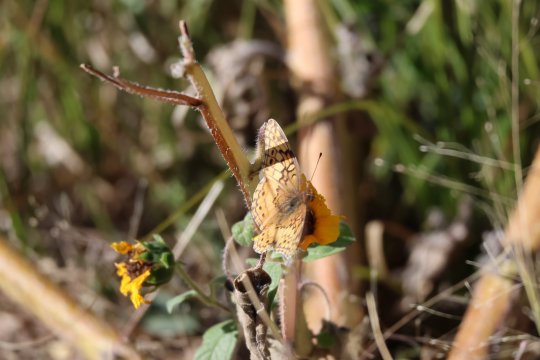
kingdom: Animalia
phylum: Arthropoda
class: Insecta
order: Lepidoptera
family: Nymphalidae
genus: Euptoieta
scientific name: Euptoieta claudia
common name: Variegated Fritillary
